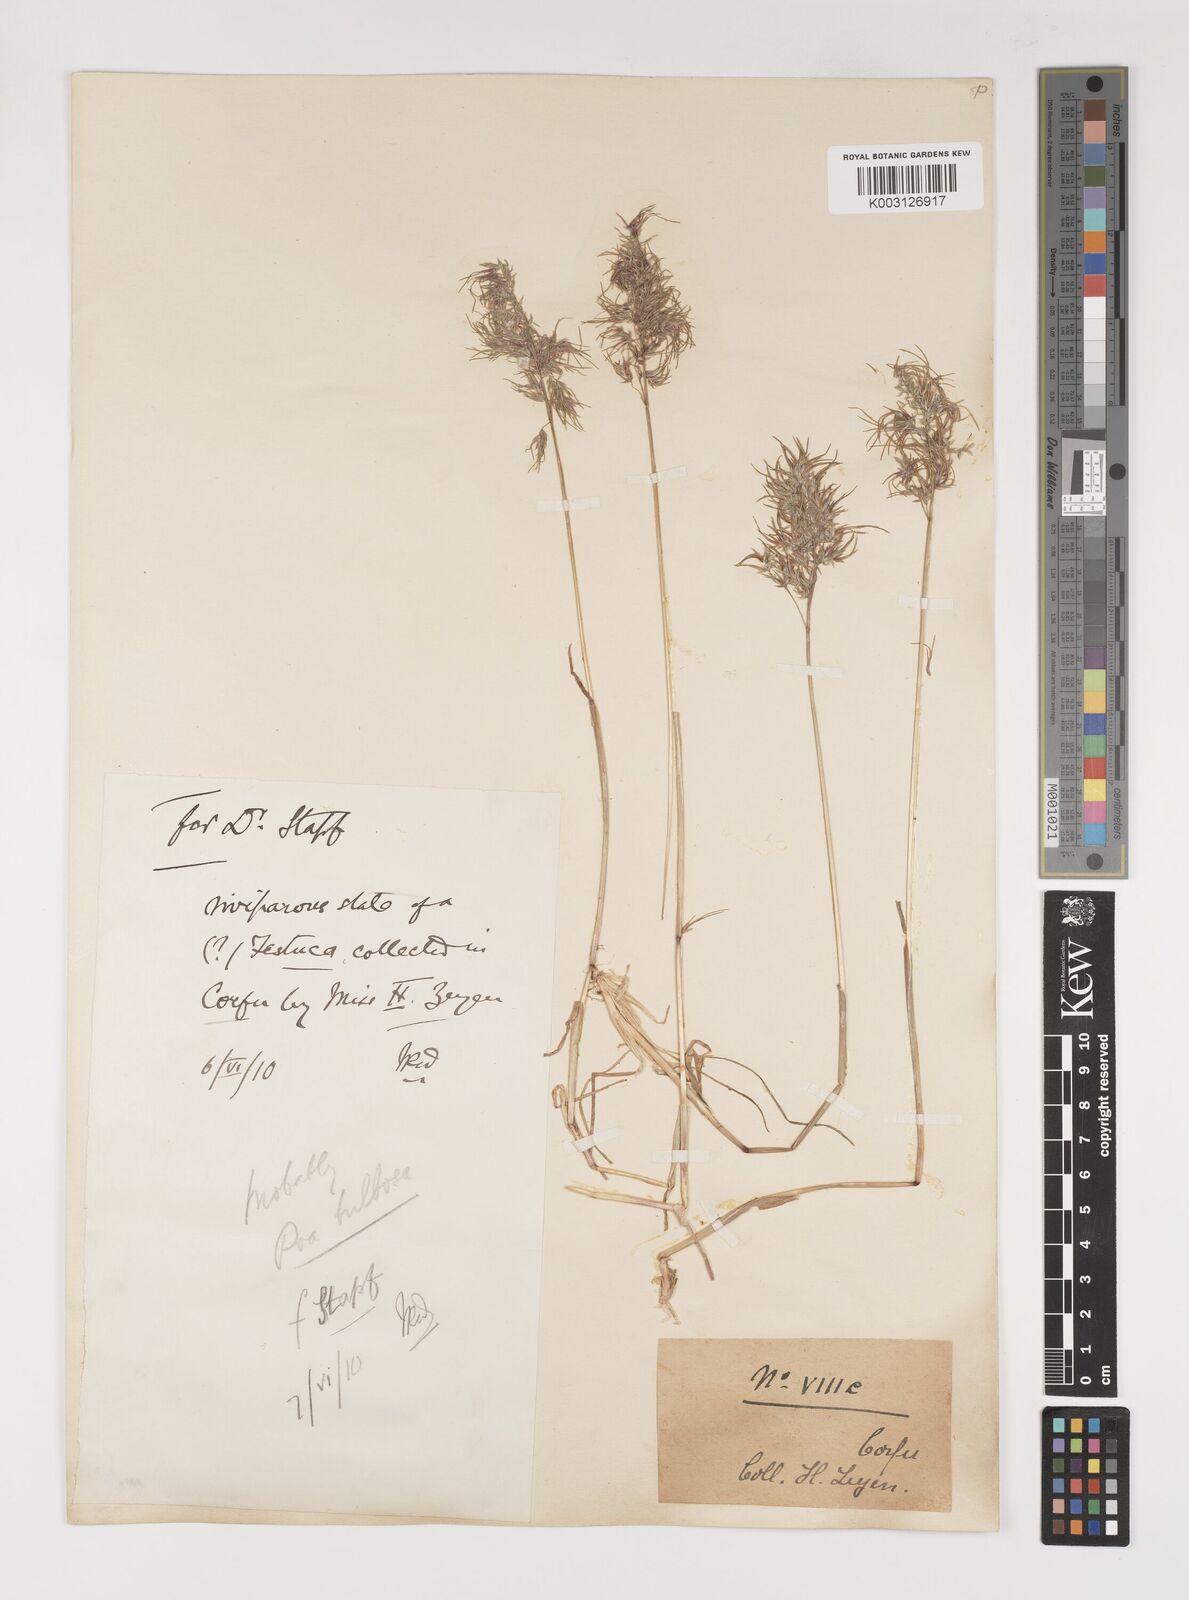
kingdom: Plantae
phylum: Tracheophyta
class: Liliopsida
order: Poales
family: Poaceae
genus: Poa
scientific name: Poa bulbosa
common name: Bulbous bluegrass
